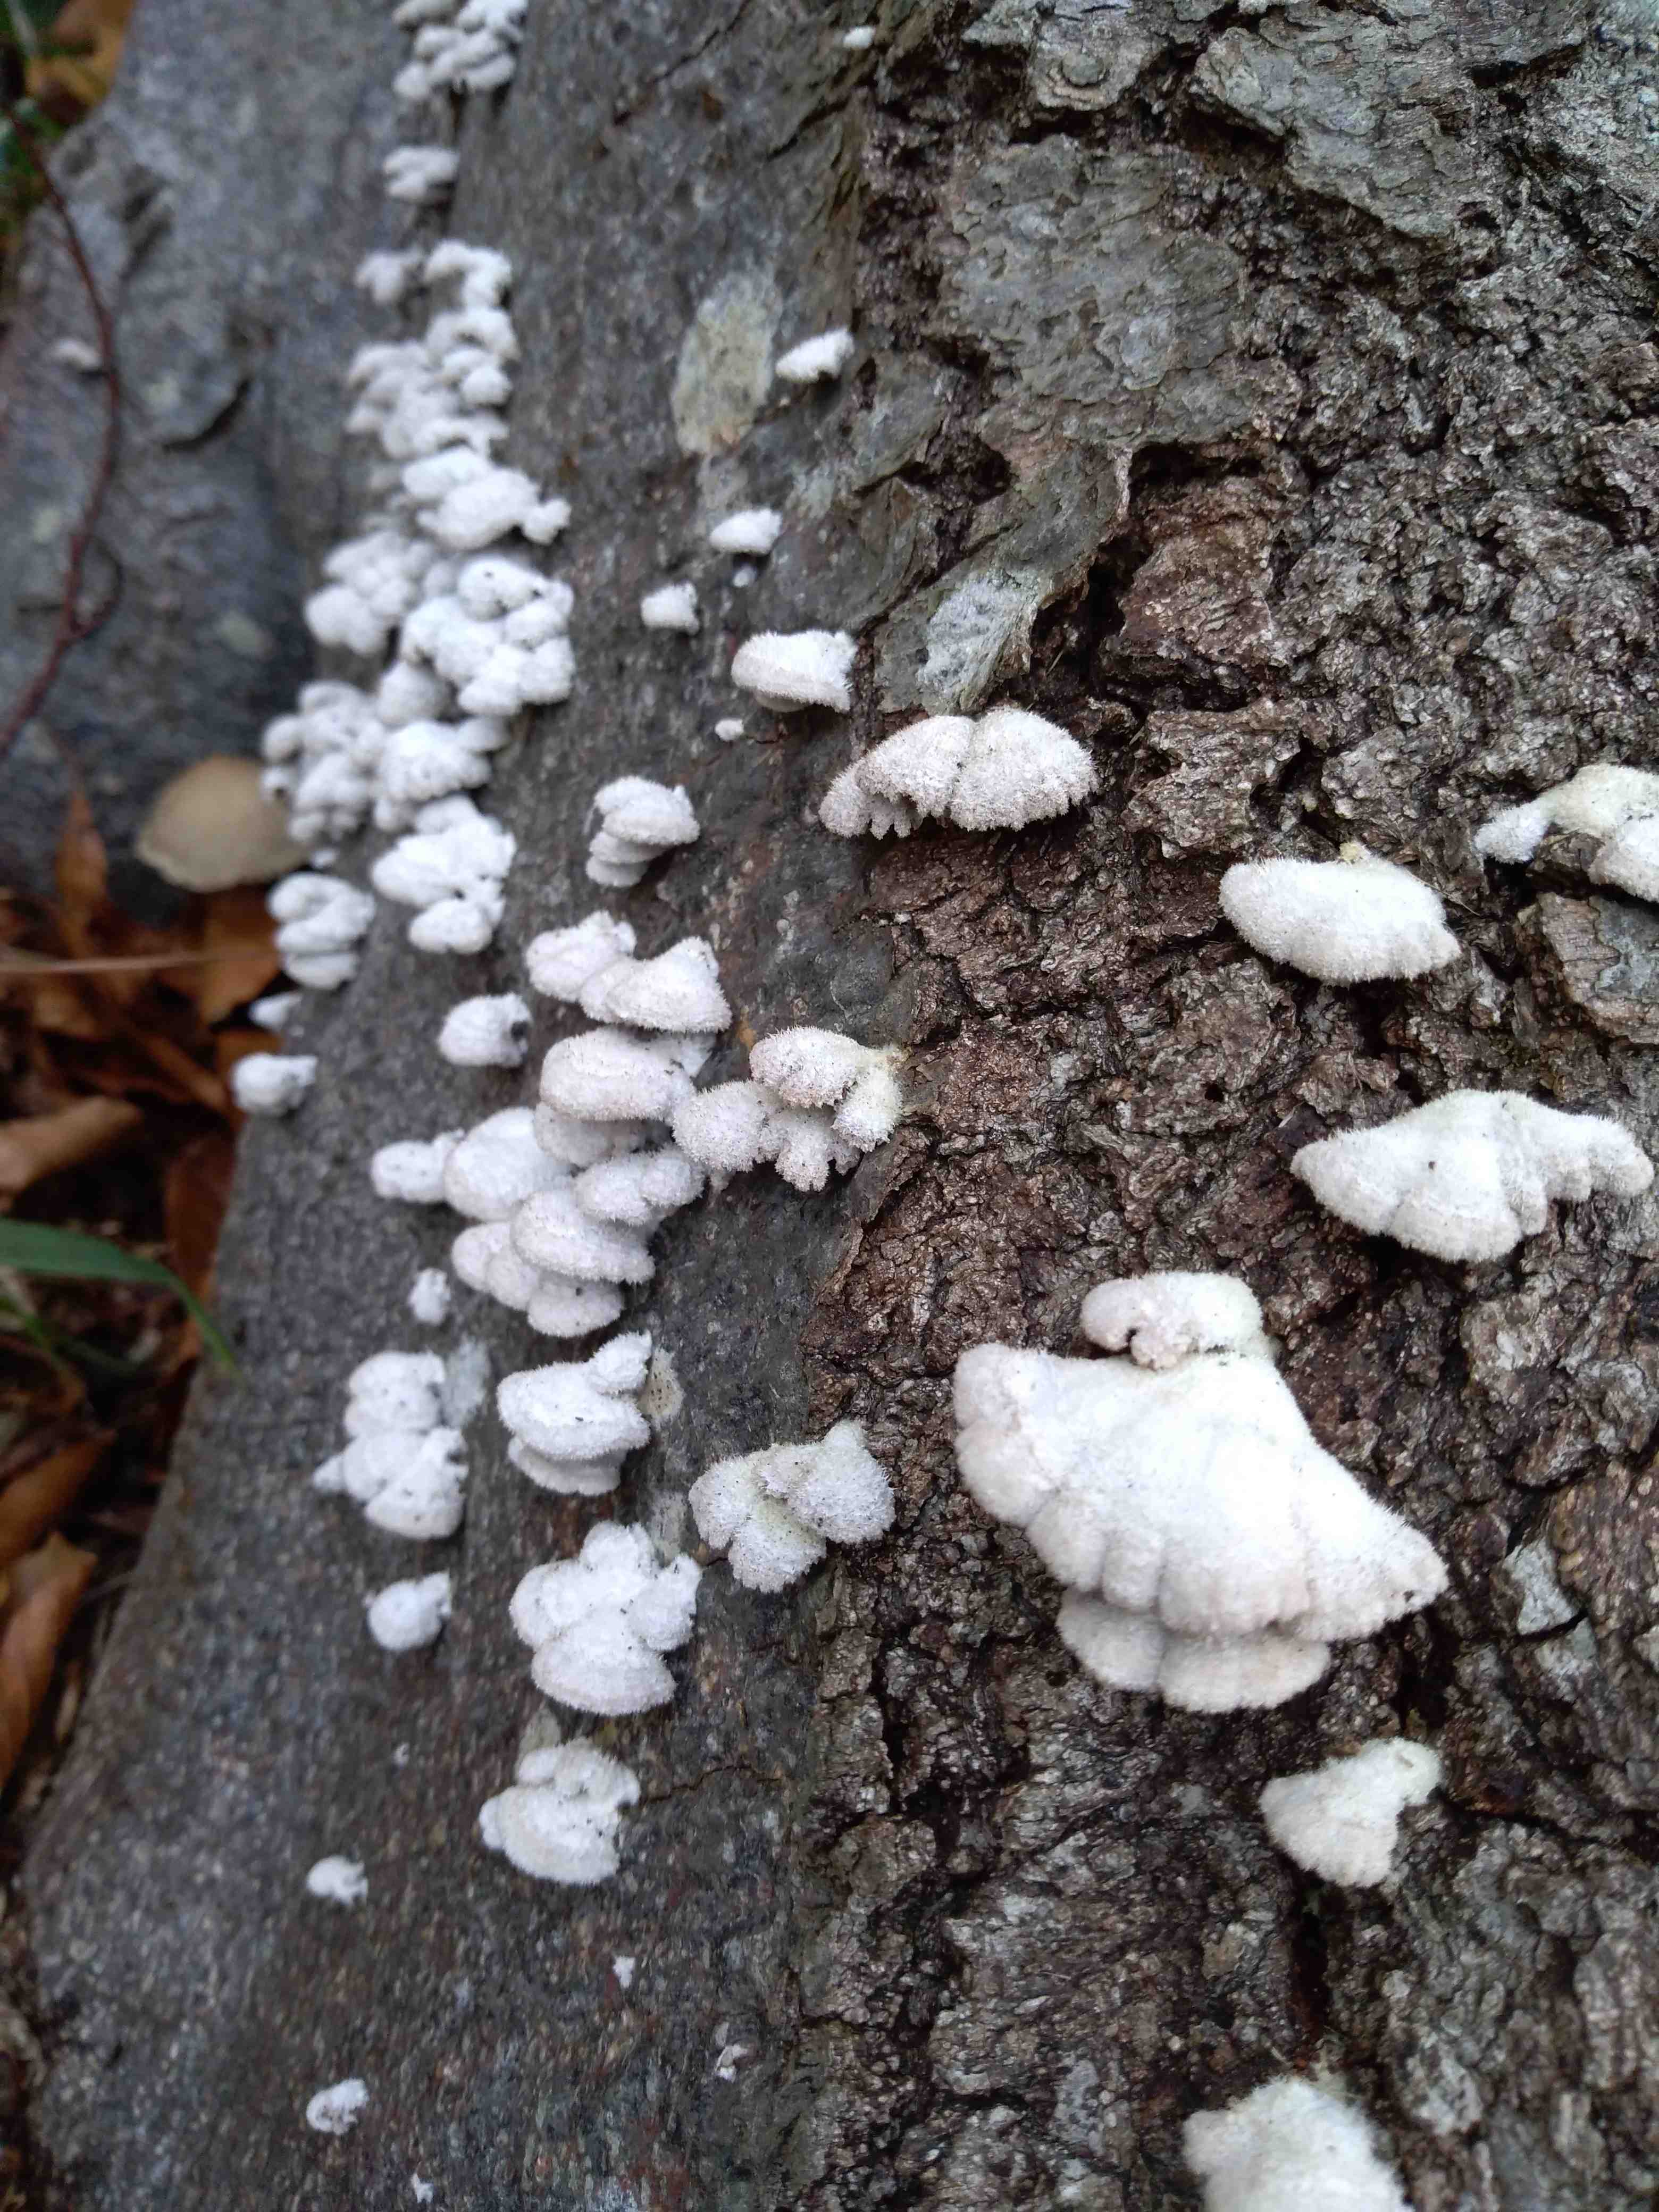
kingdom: Fungi
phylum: Basidiomycota
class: Agaricomycetes
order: Agaricales
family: Schizophyllaceae
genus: Schizophyllum
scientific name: Schizophyllum commune
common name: kløvblad
